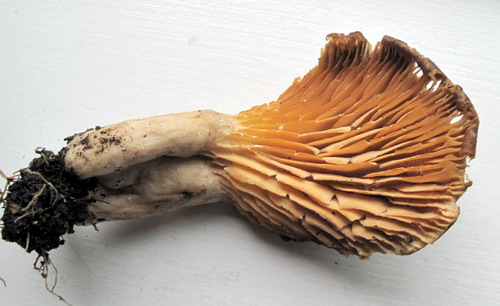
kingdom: Fungi
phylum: Basidiomycota
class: Agaricomycetes
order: Russulales
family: Russulaceae
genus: Lactarius
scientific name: Lactarius pyrogalus
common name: hassel-mælkehat
